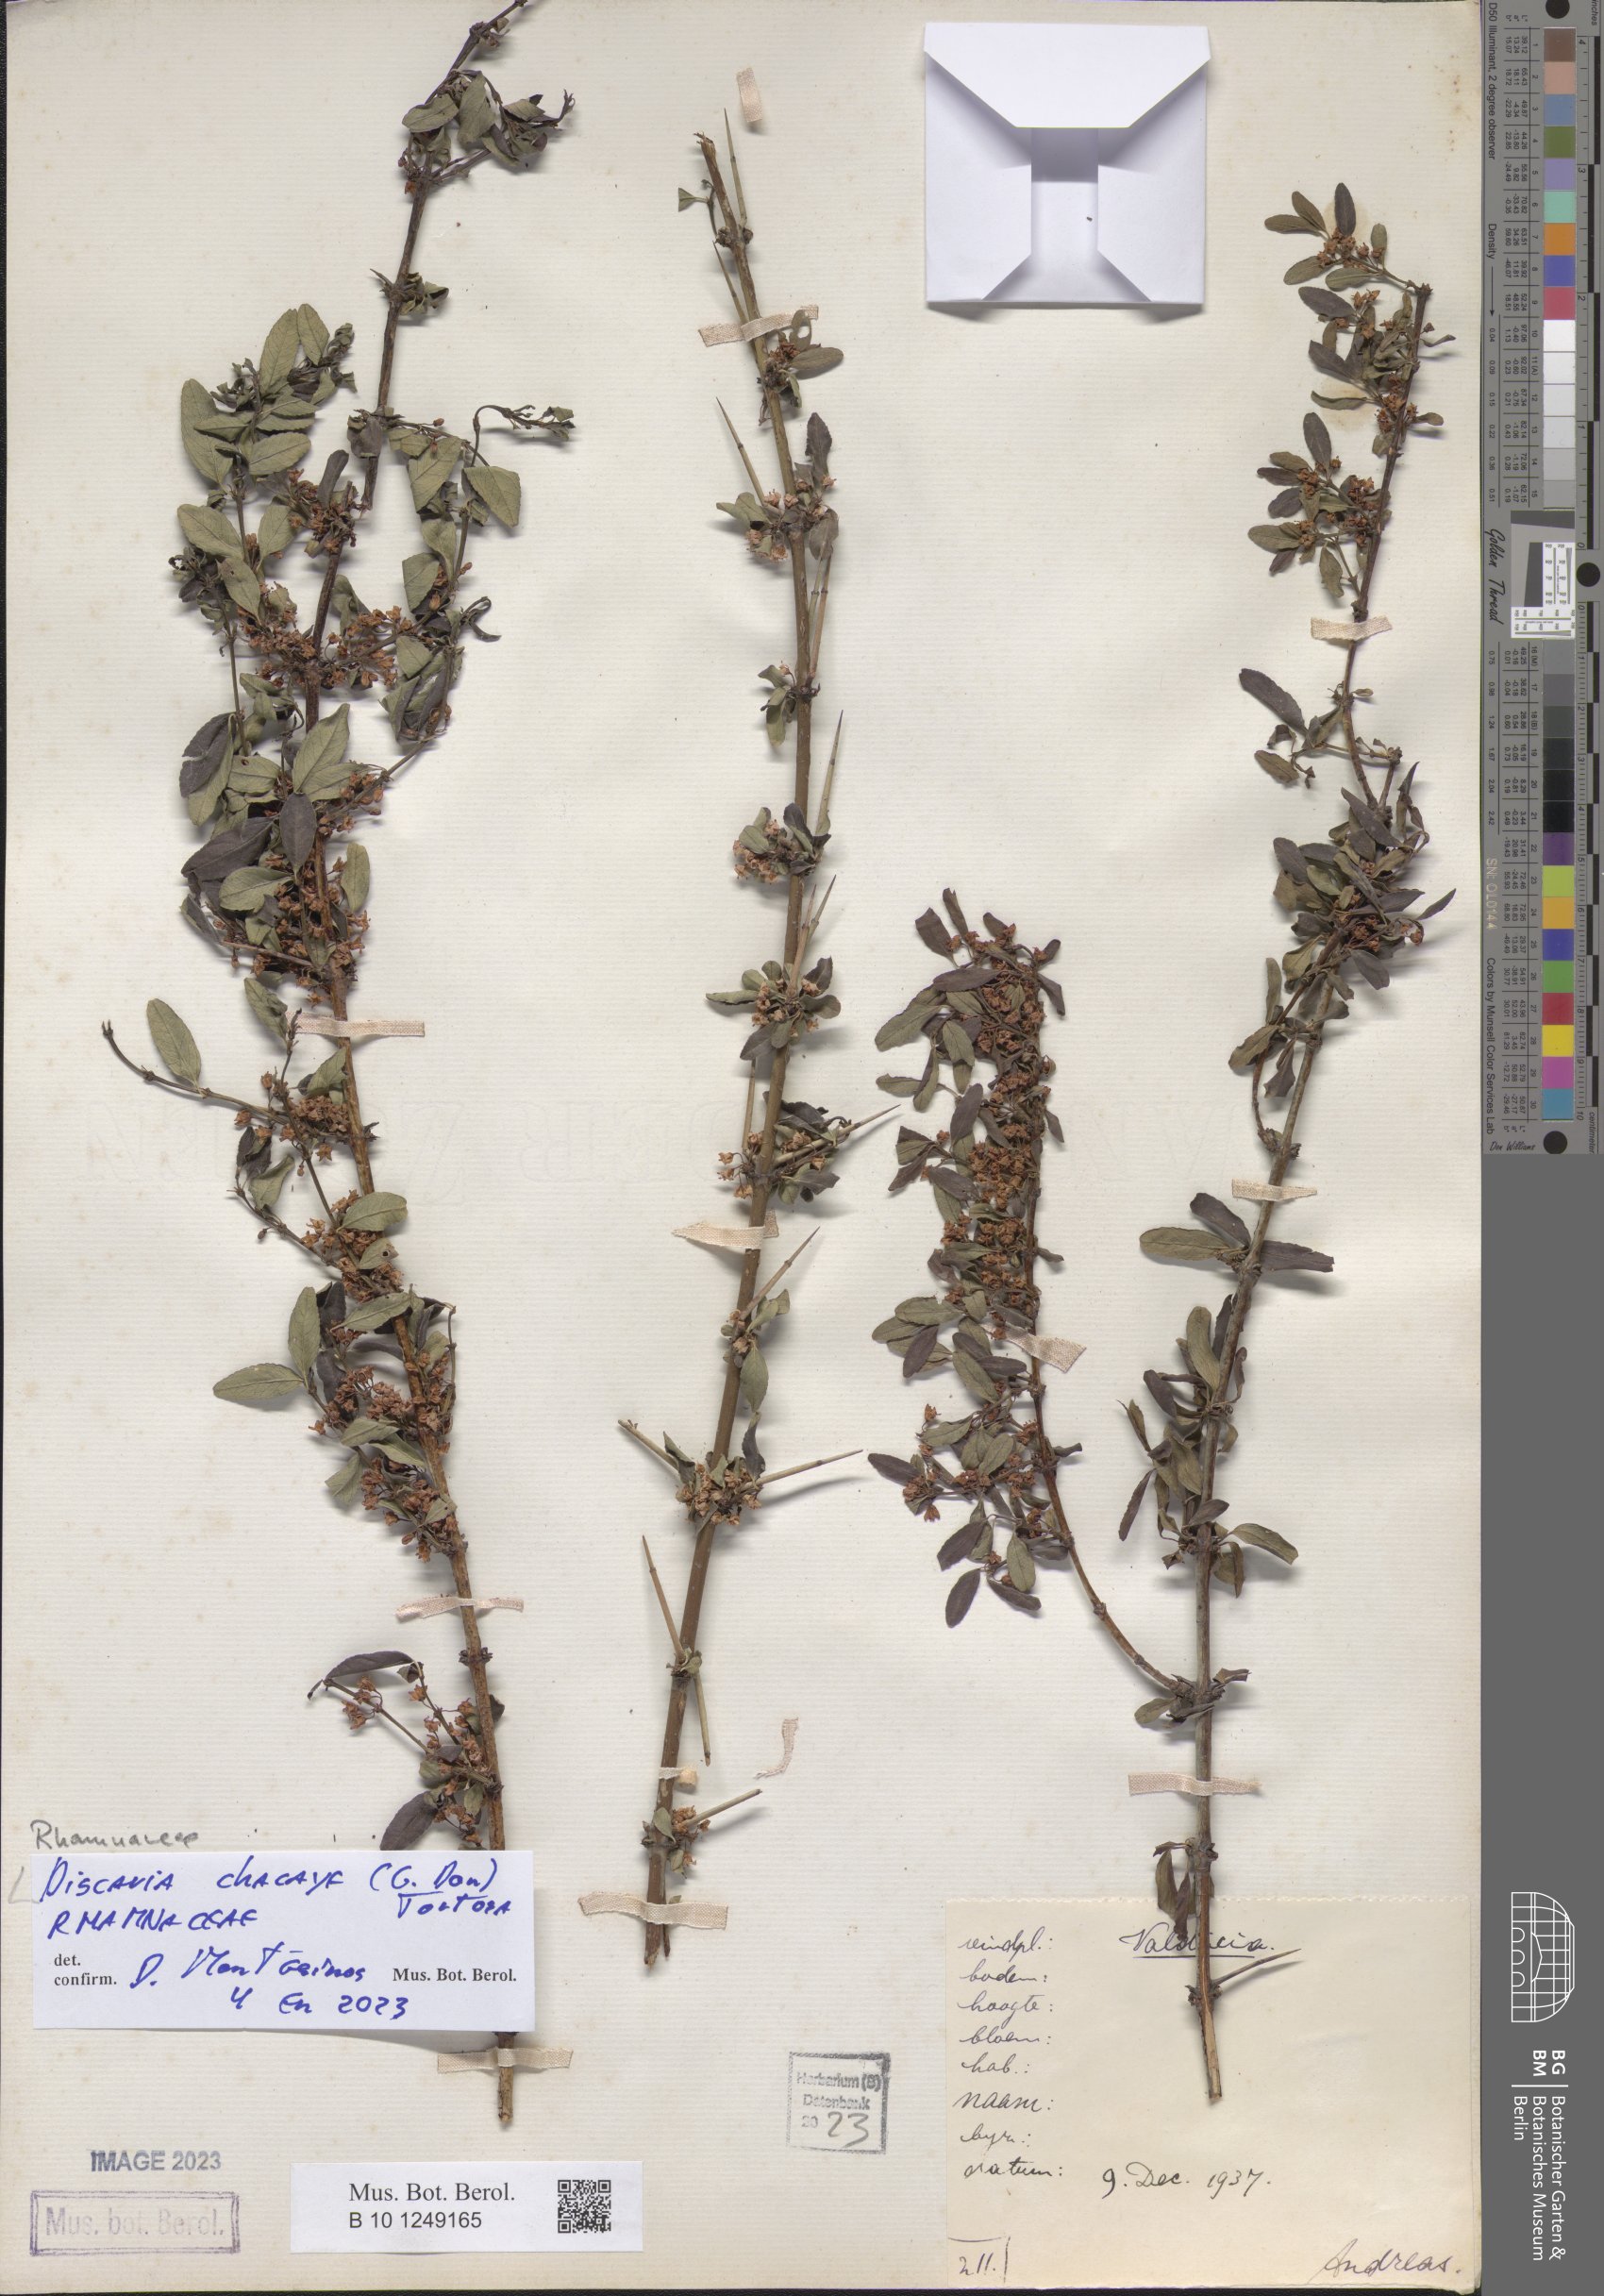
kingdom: Plantae
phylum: Tracheophyta
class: Magnoliopsida
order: Rosales
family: Rhamnaceae
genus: Discaria
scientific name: Discaria chacaye
